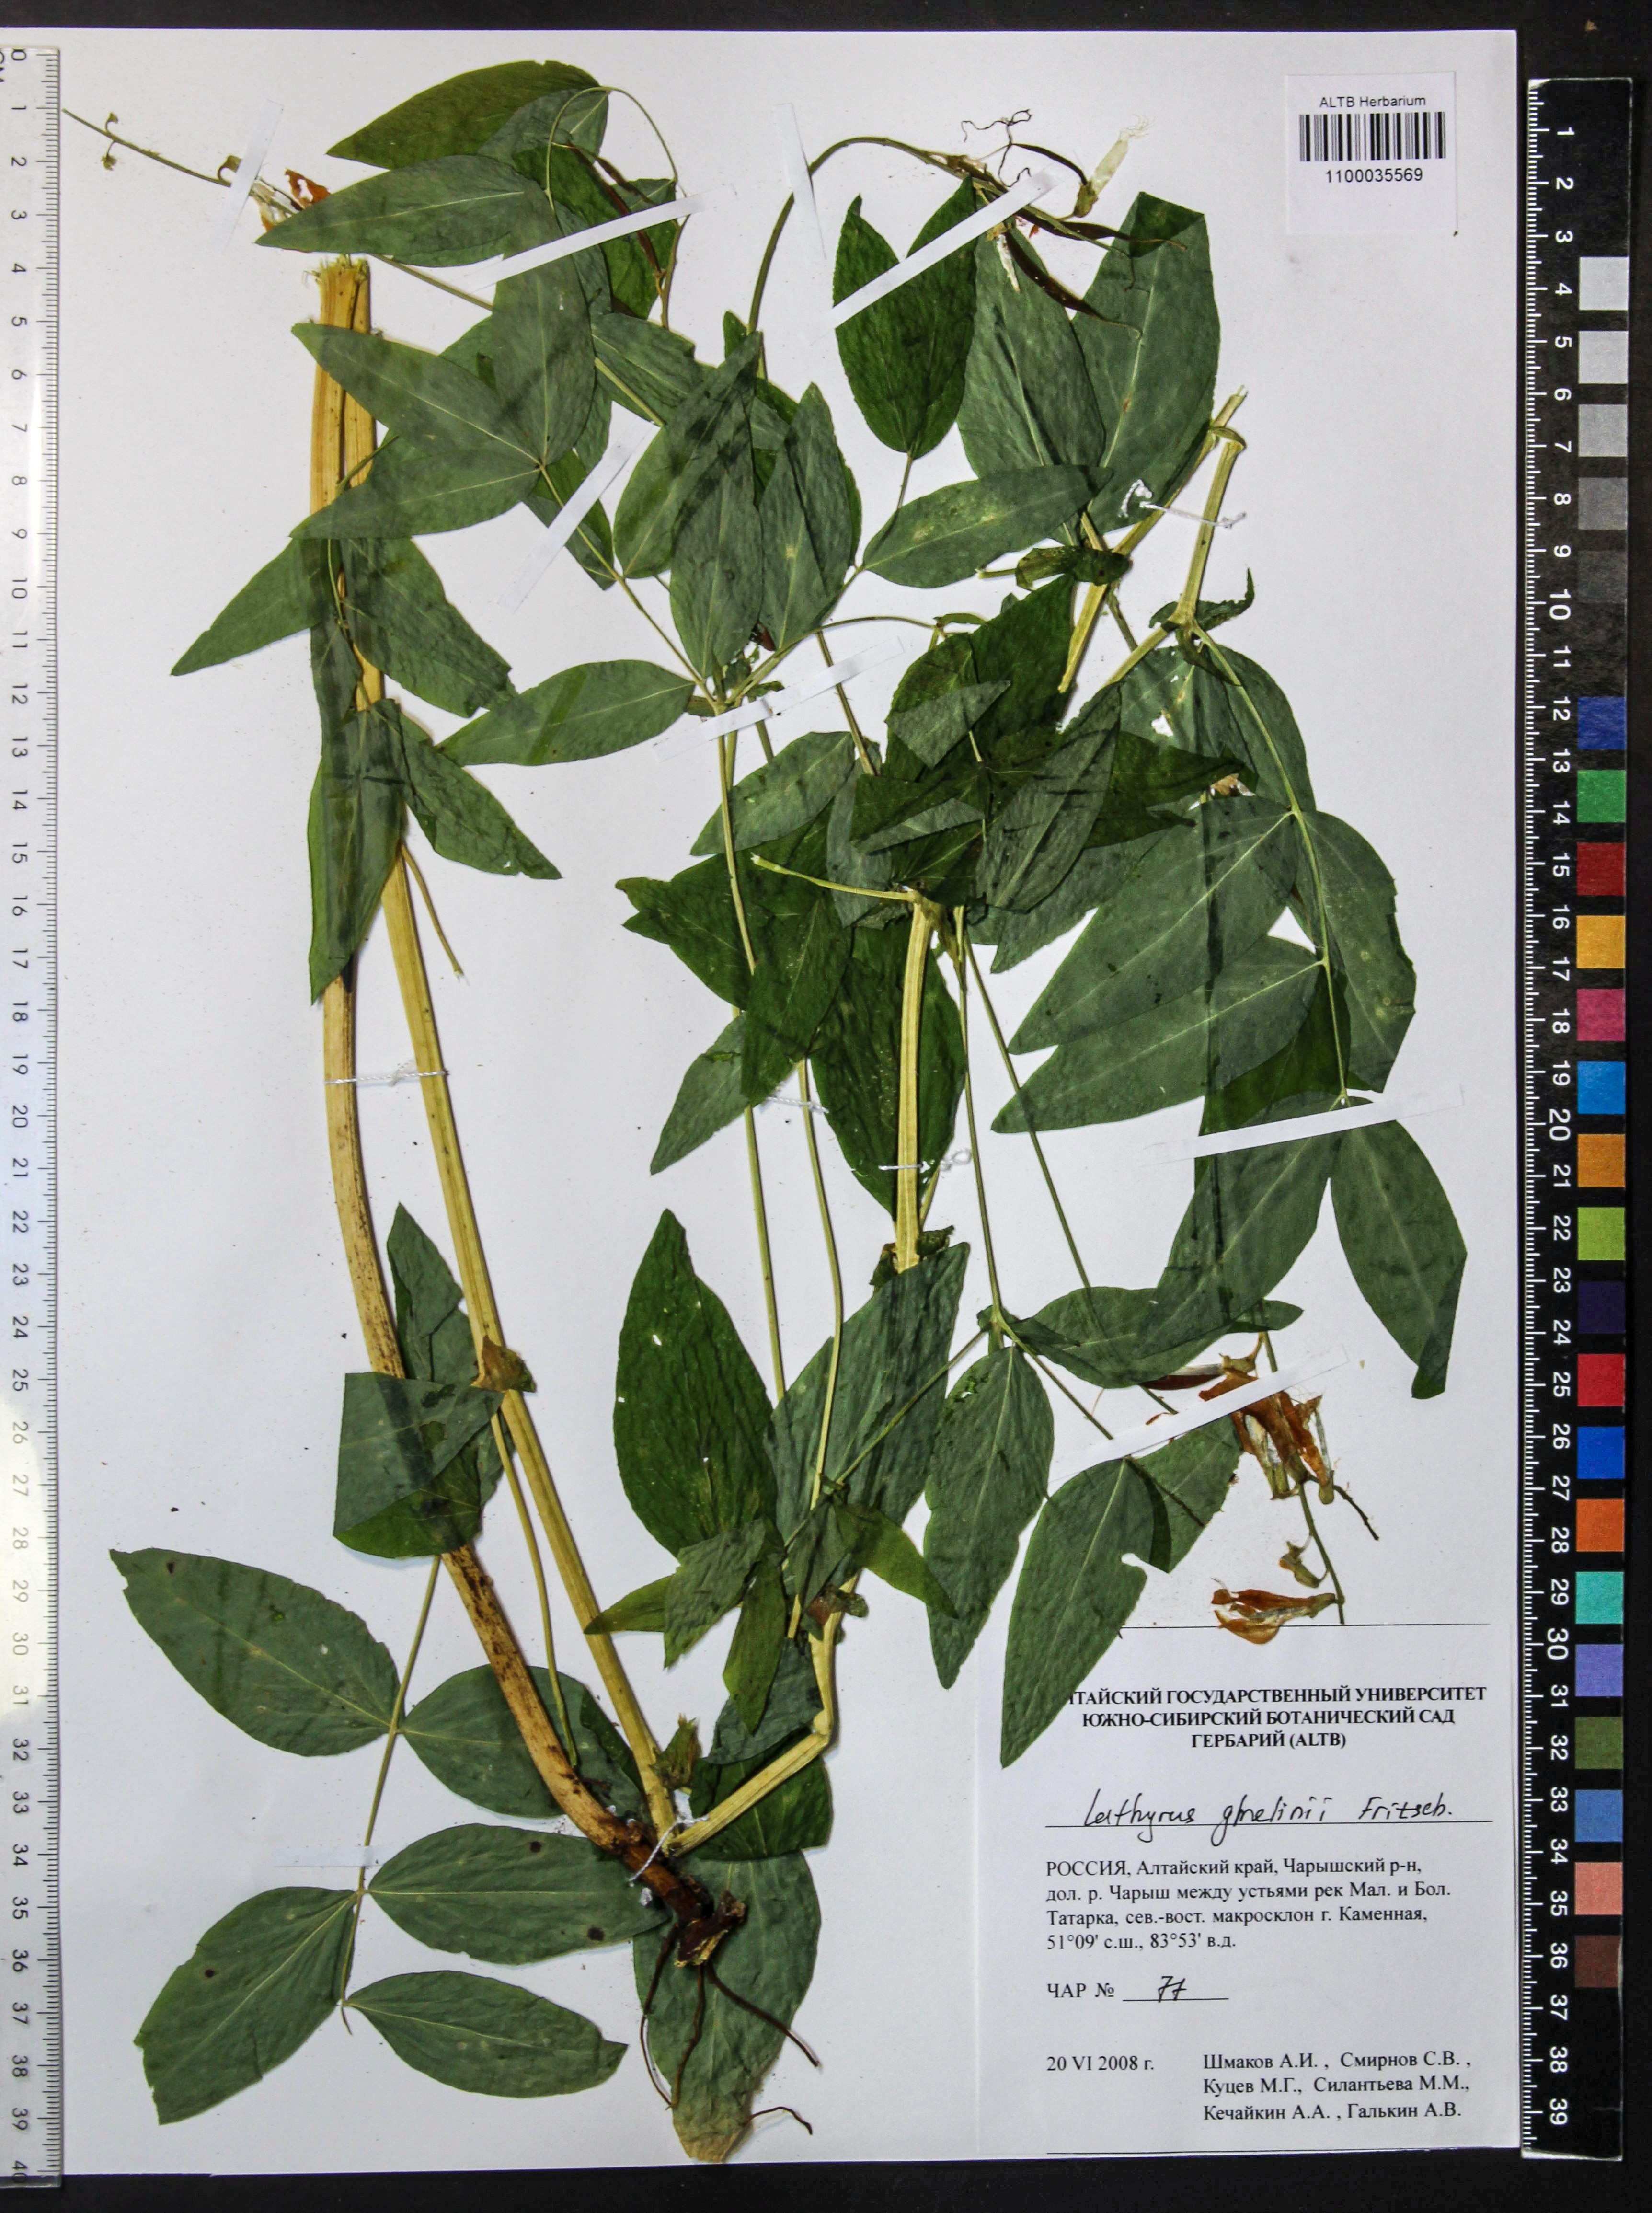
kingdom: Plantae
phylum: Tracheophyta
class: Magnoliopsida
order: Fabales
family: Fabaceae
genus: Lathyrus
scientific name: Lathyrus gmelinii
